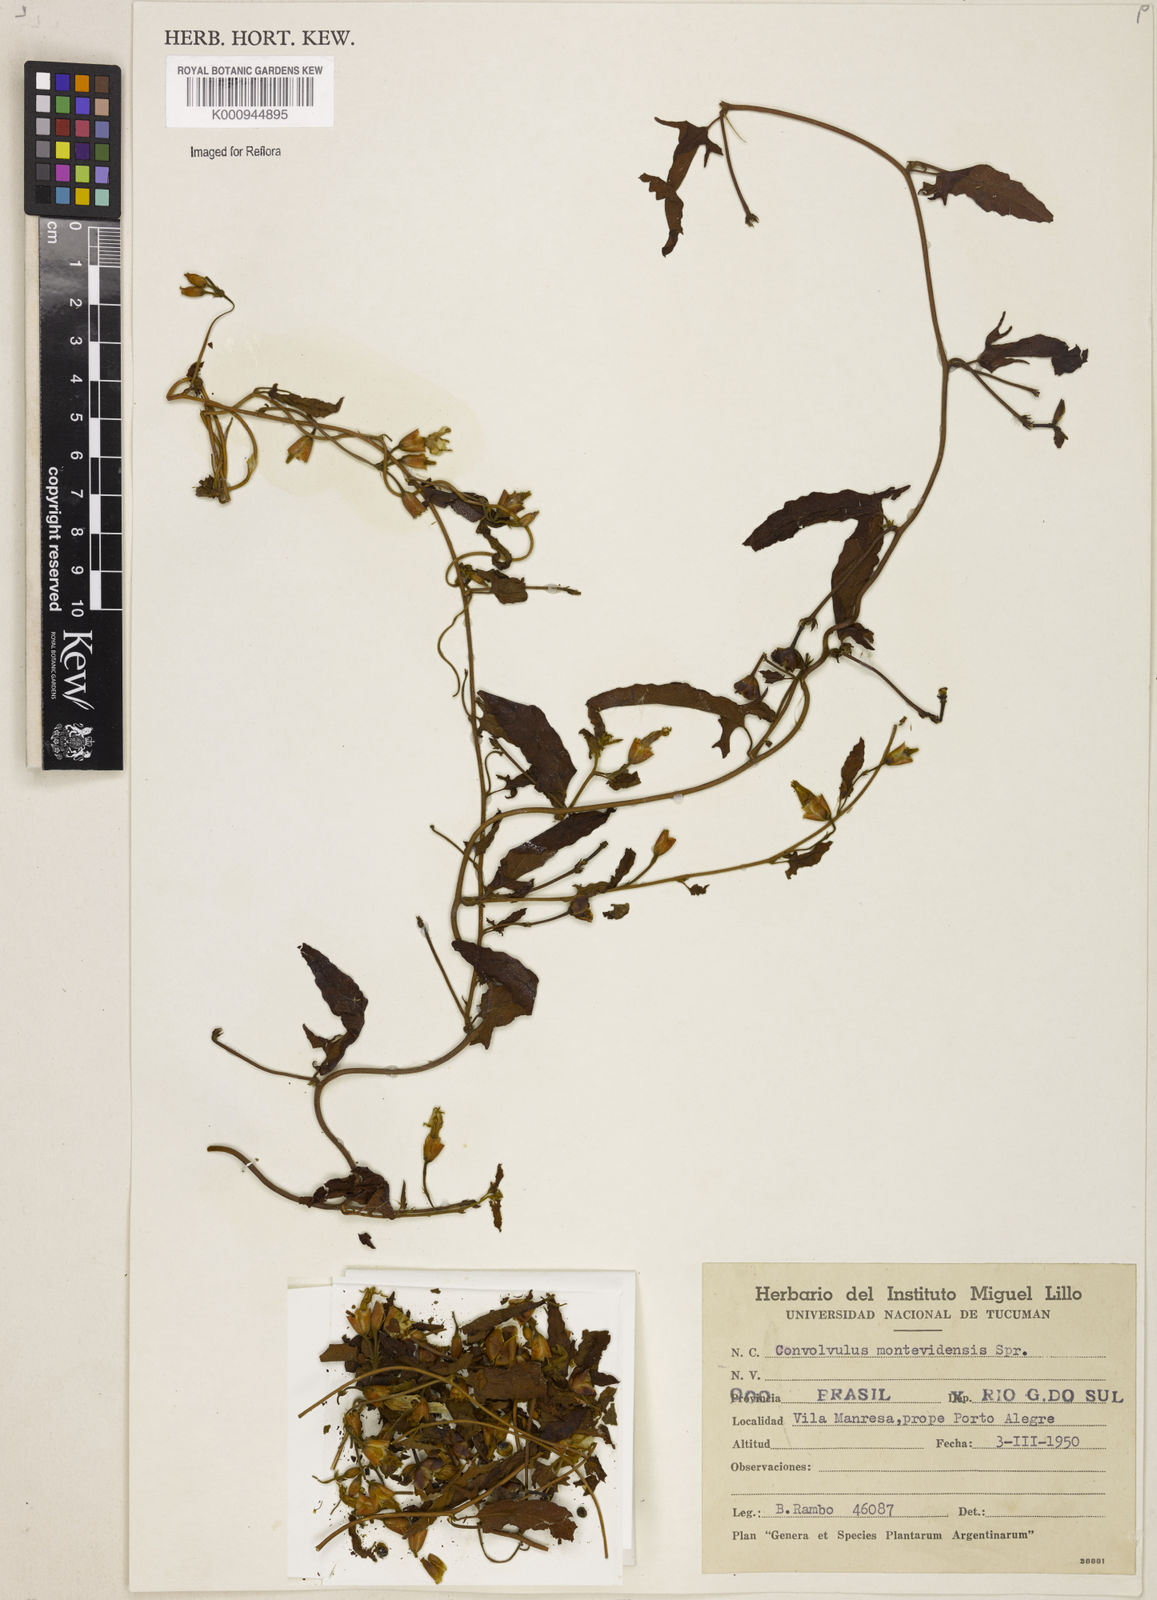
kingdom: Plantae
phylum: Tracheophyta
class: Magnoliopsida
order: Solanales
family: Convolvulaceae
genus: Convolvulus
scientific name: Convolvulus crenatifolius
